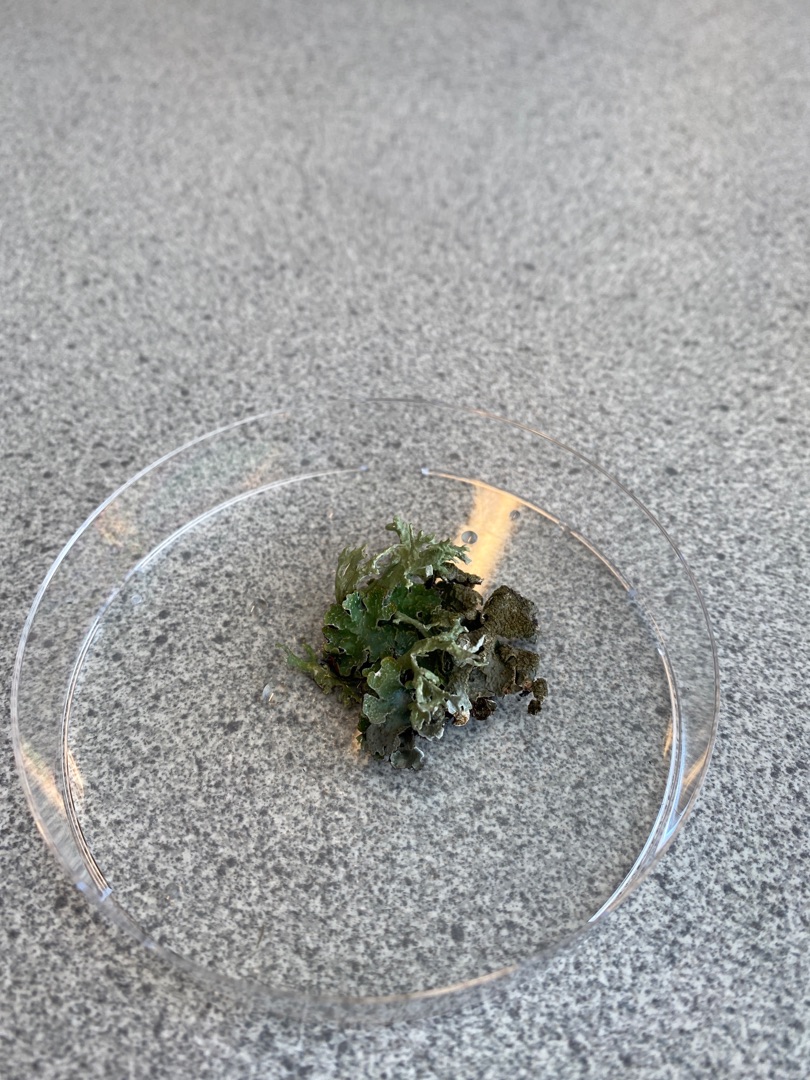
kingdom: Fungi
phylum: Ascomycota
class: Lecanoromycetes
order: Lecanorales
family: Parmeliaceae
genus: Parmelia
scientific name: Parmelia sulcata
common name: Rynket skållav
